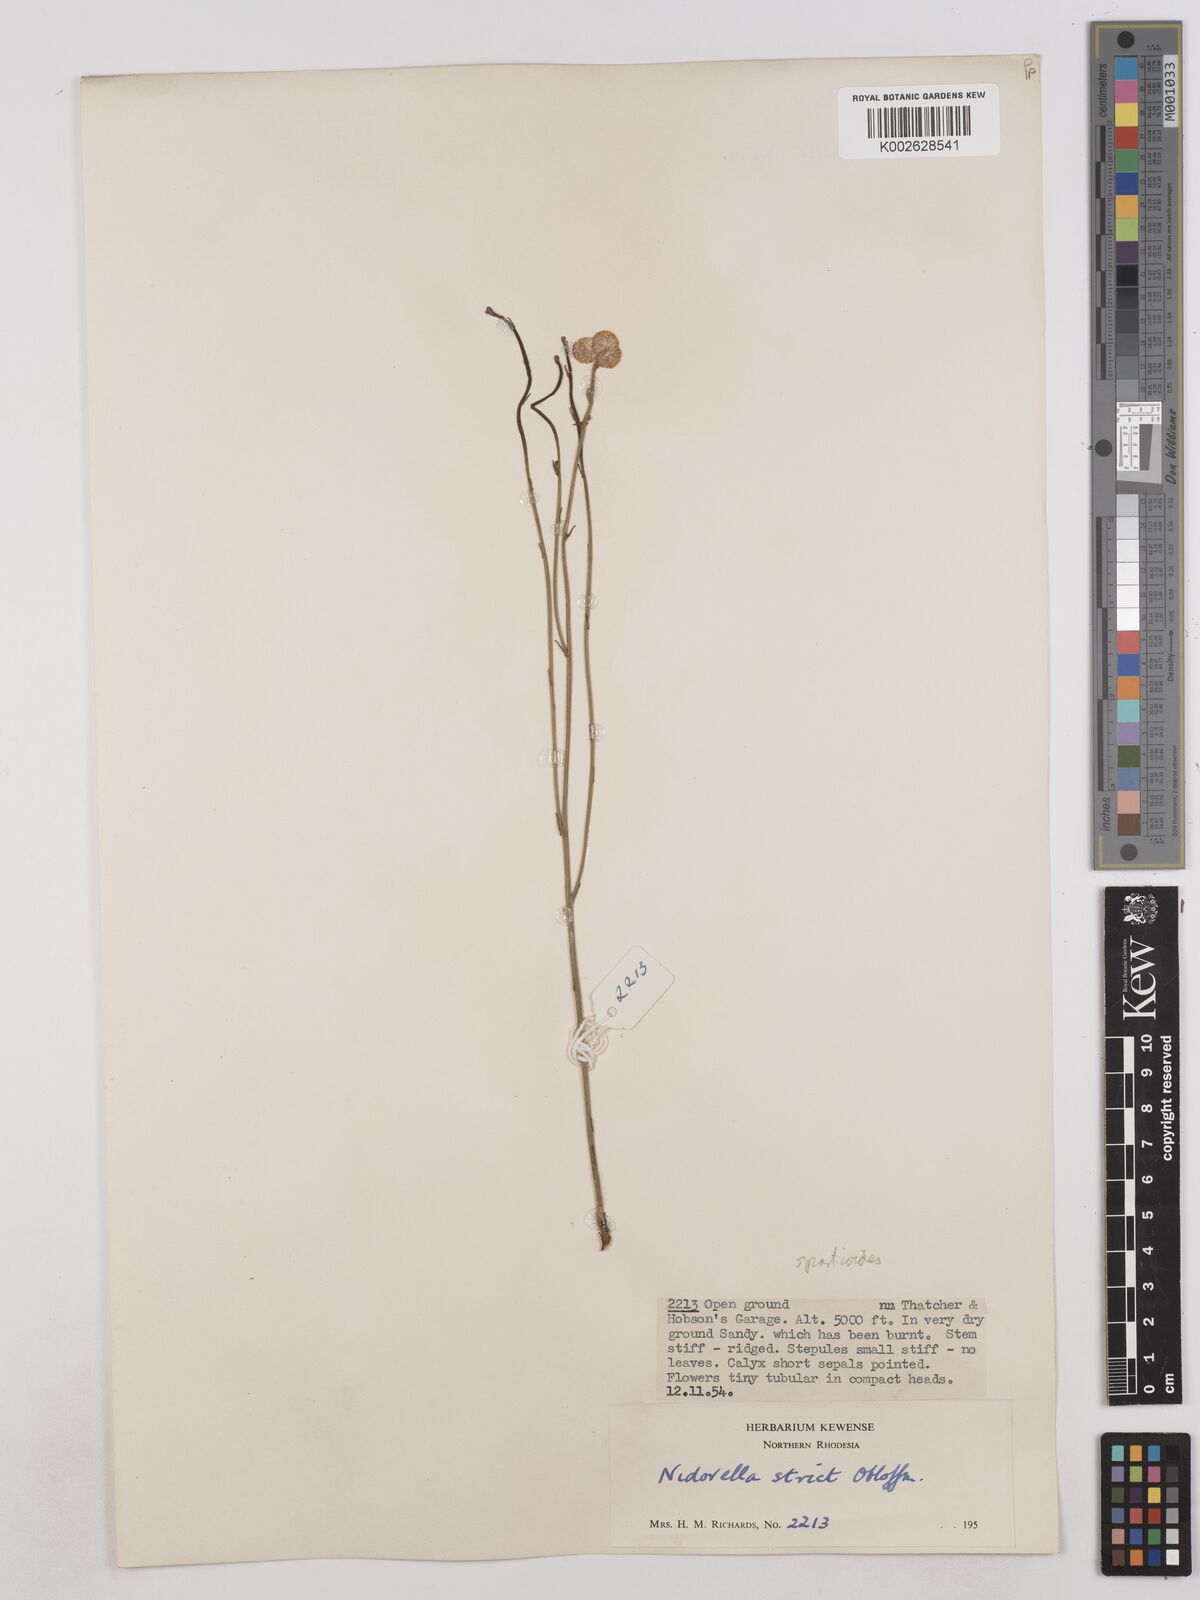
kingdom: Plantae
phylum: Tracheophyta
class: Magnoliopsida
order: Asterales
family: Asteraceae
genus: Nidorella
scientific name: Nidorella spartioides
